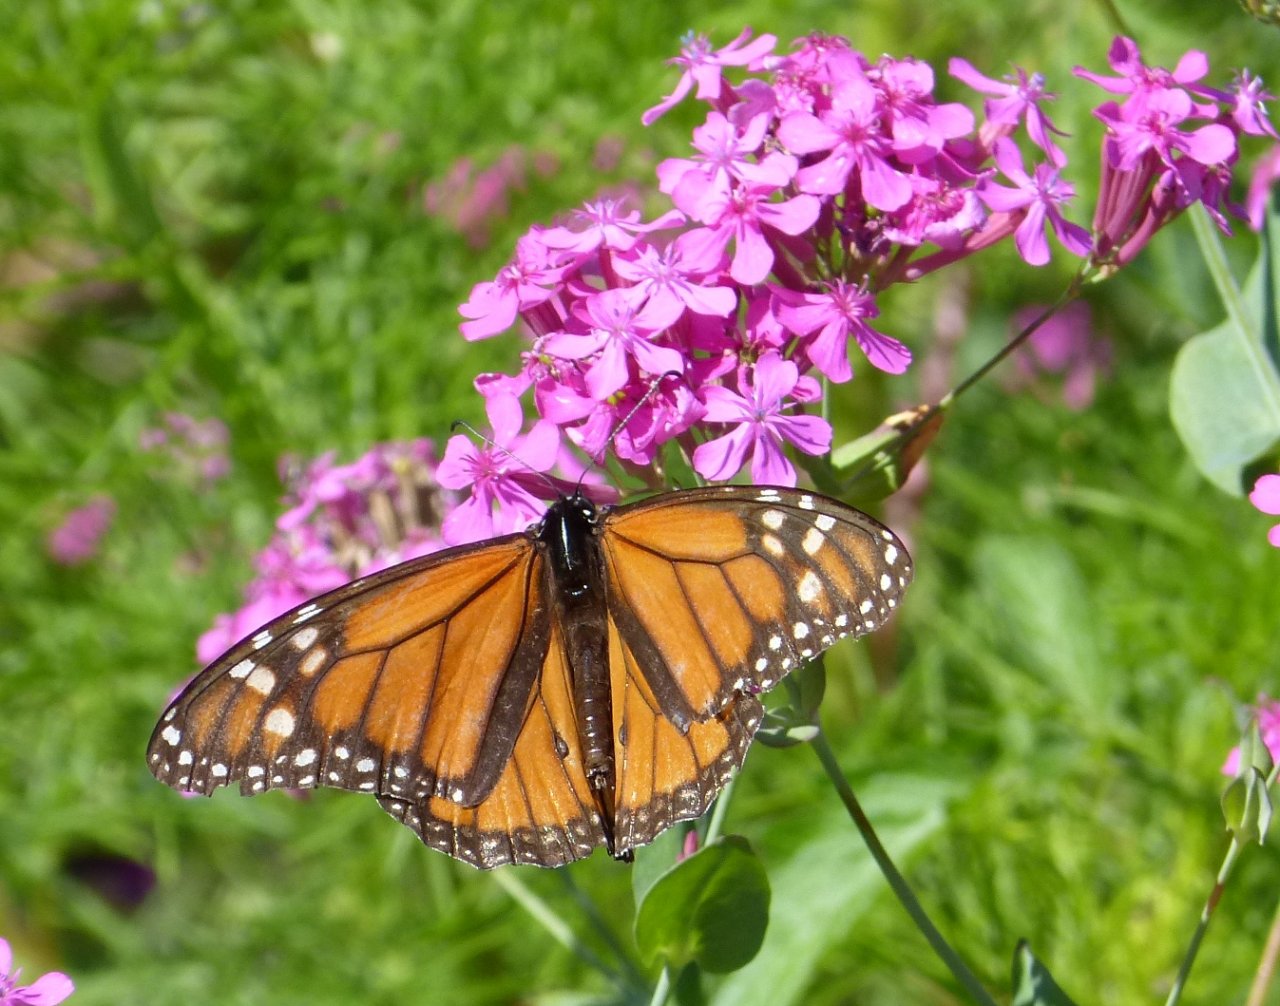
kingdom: Animalia
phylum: Arthropoda
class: Insecta
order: Lepidoptera
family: Nymphalidae
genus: Danaus
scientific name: Danaus plexippus
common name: Monarch
